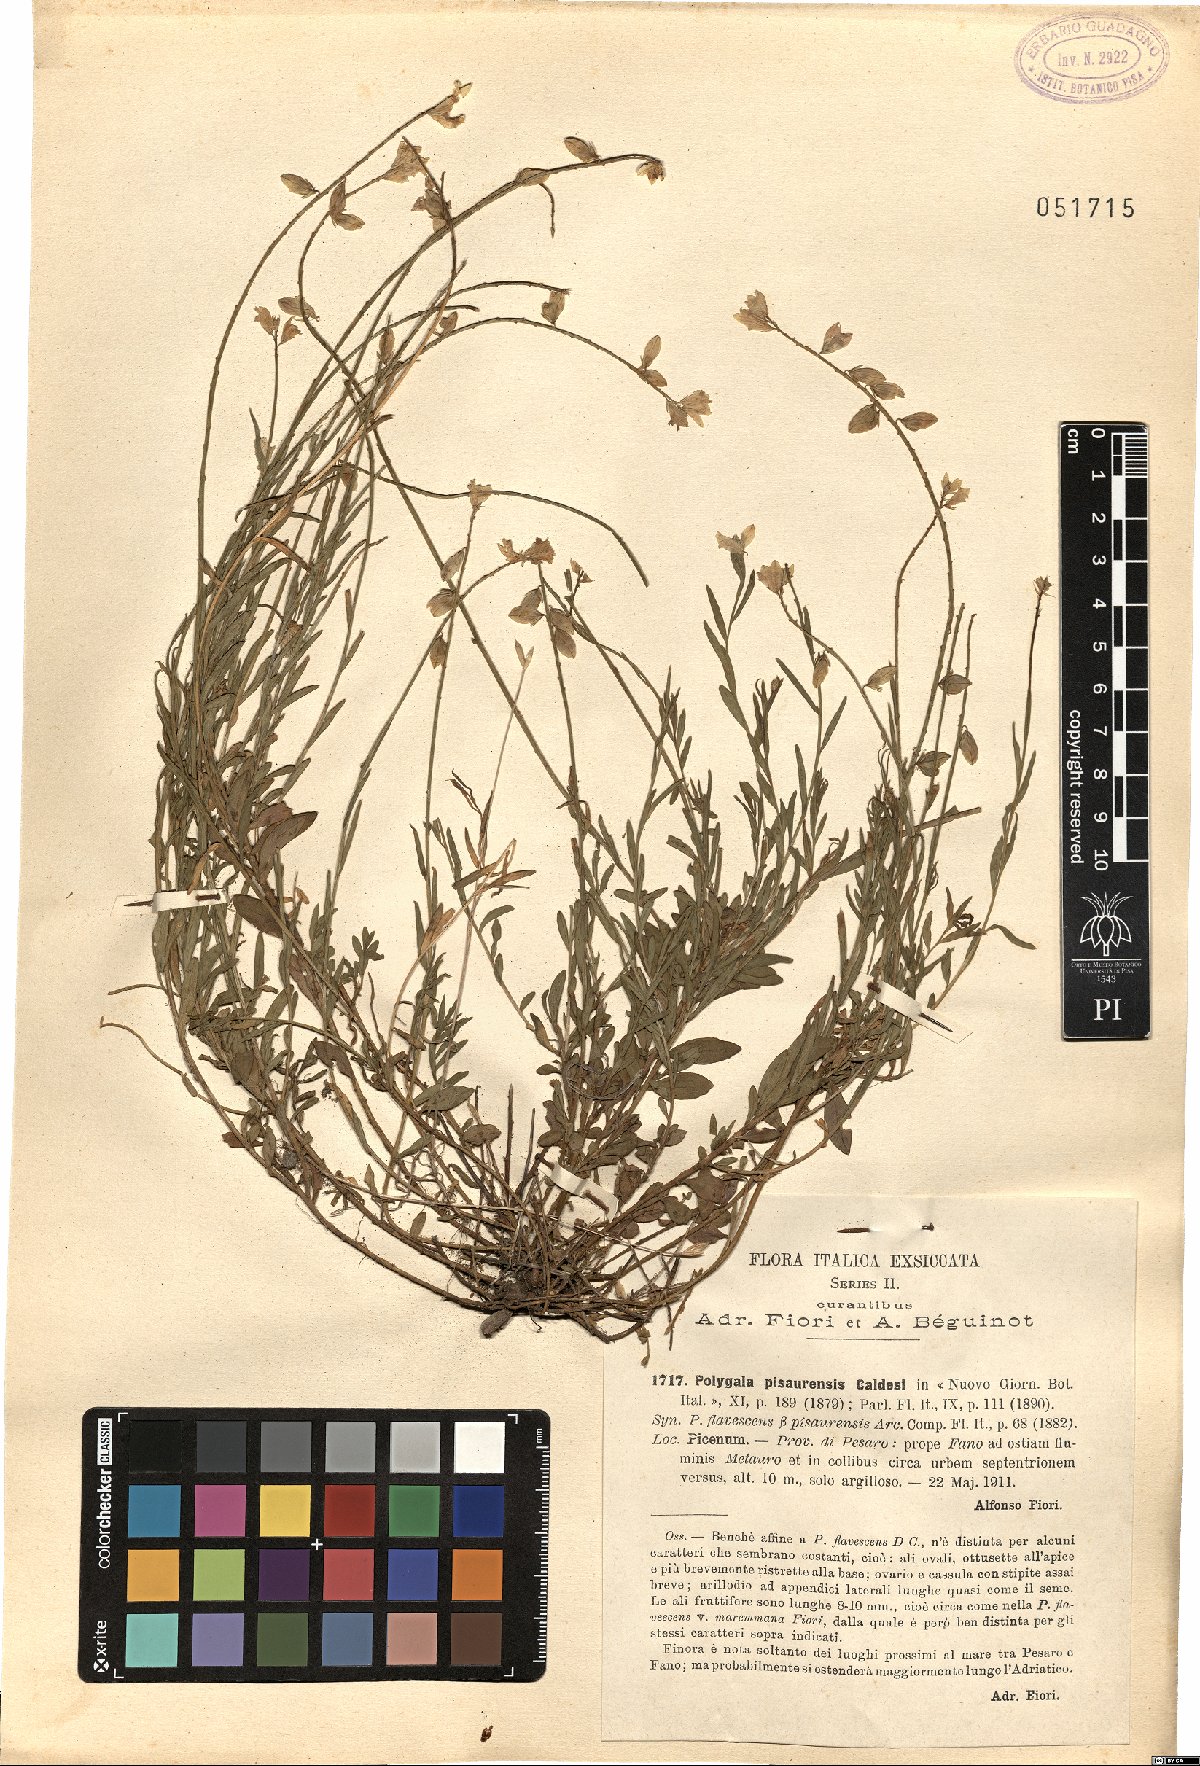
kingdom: Plantae
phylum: Tracheophyta
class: Magnoliopsida
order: Fabales
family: Polygalaceae
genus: Polygala
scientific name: Polygala flavescens
